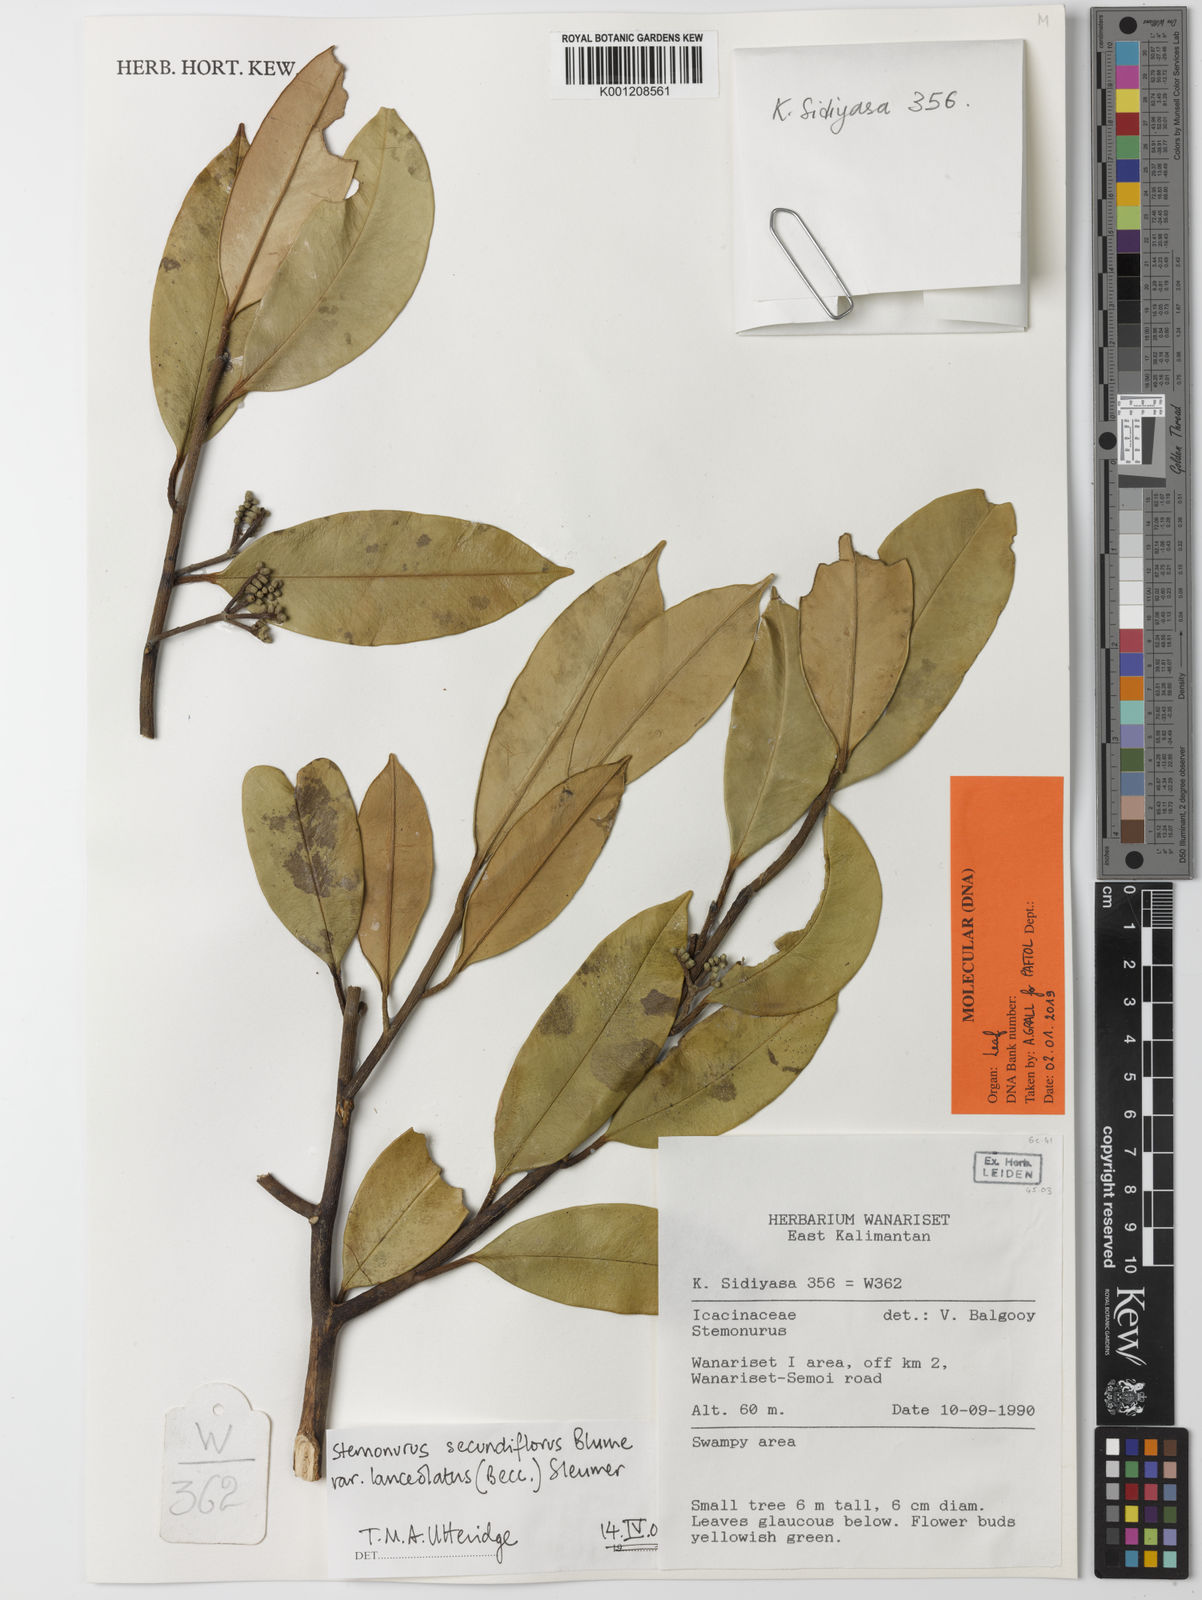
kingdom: Plantae
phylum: Tracheophyta
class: Magnoliopsida
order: Cardiopteridales
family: Stemonuraceae
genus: Stemonurus
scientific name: Stemonurus secundiflorus
